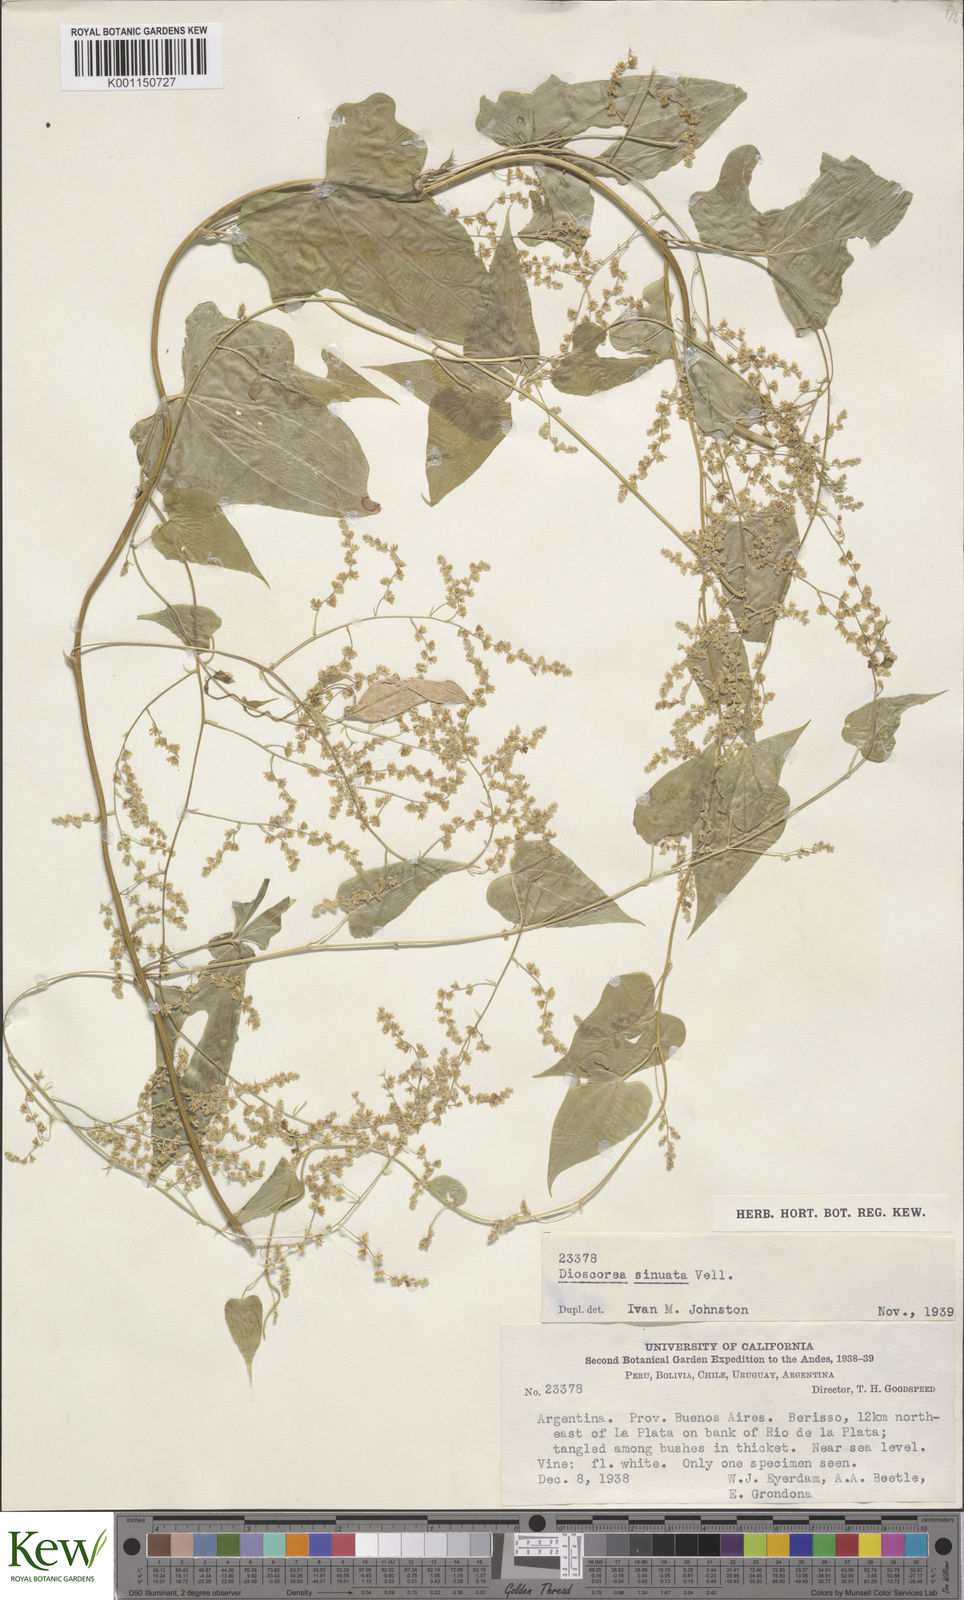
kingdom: Plantae
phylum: Tracheophyta
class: Liliopsida
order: Dioscoreales
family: Dioscoreaceae
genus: Dioscorea
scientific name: Dioscorea sinuata
